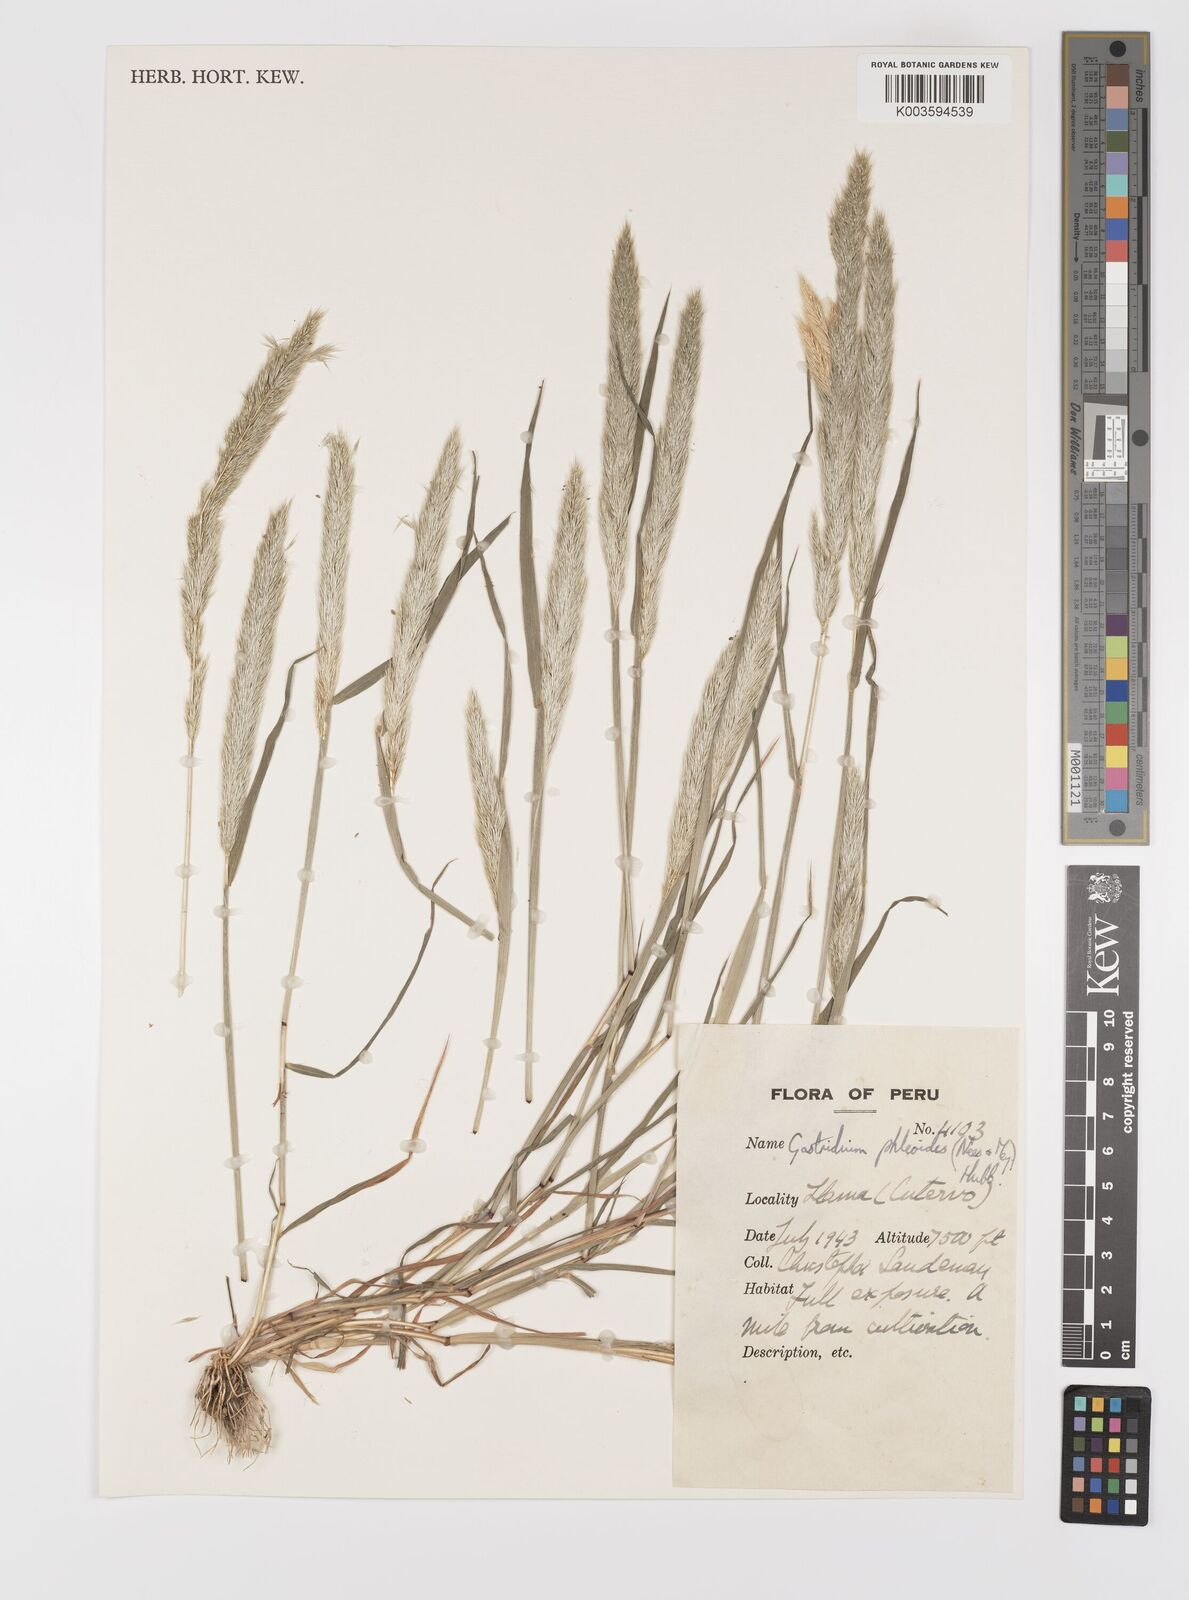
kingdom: Plantae
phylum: Tracheophyta
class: Liliopsida
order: Poales
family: Poaceae
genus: Gastridium
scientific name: Gastridium phleoides
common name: Nit grass
